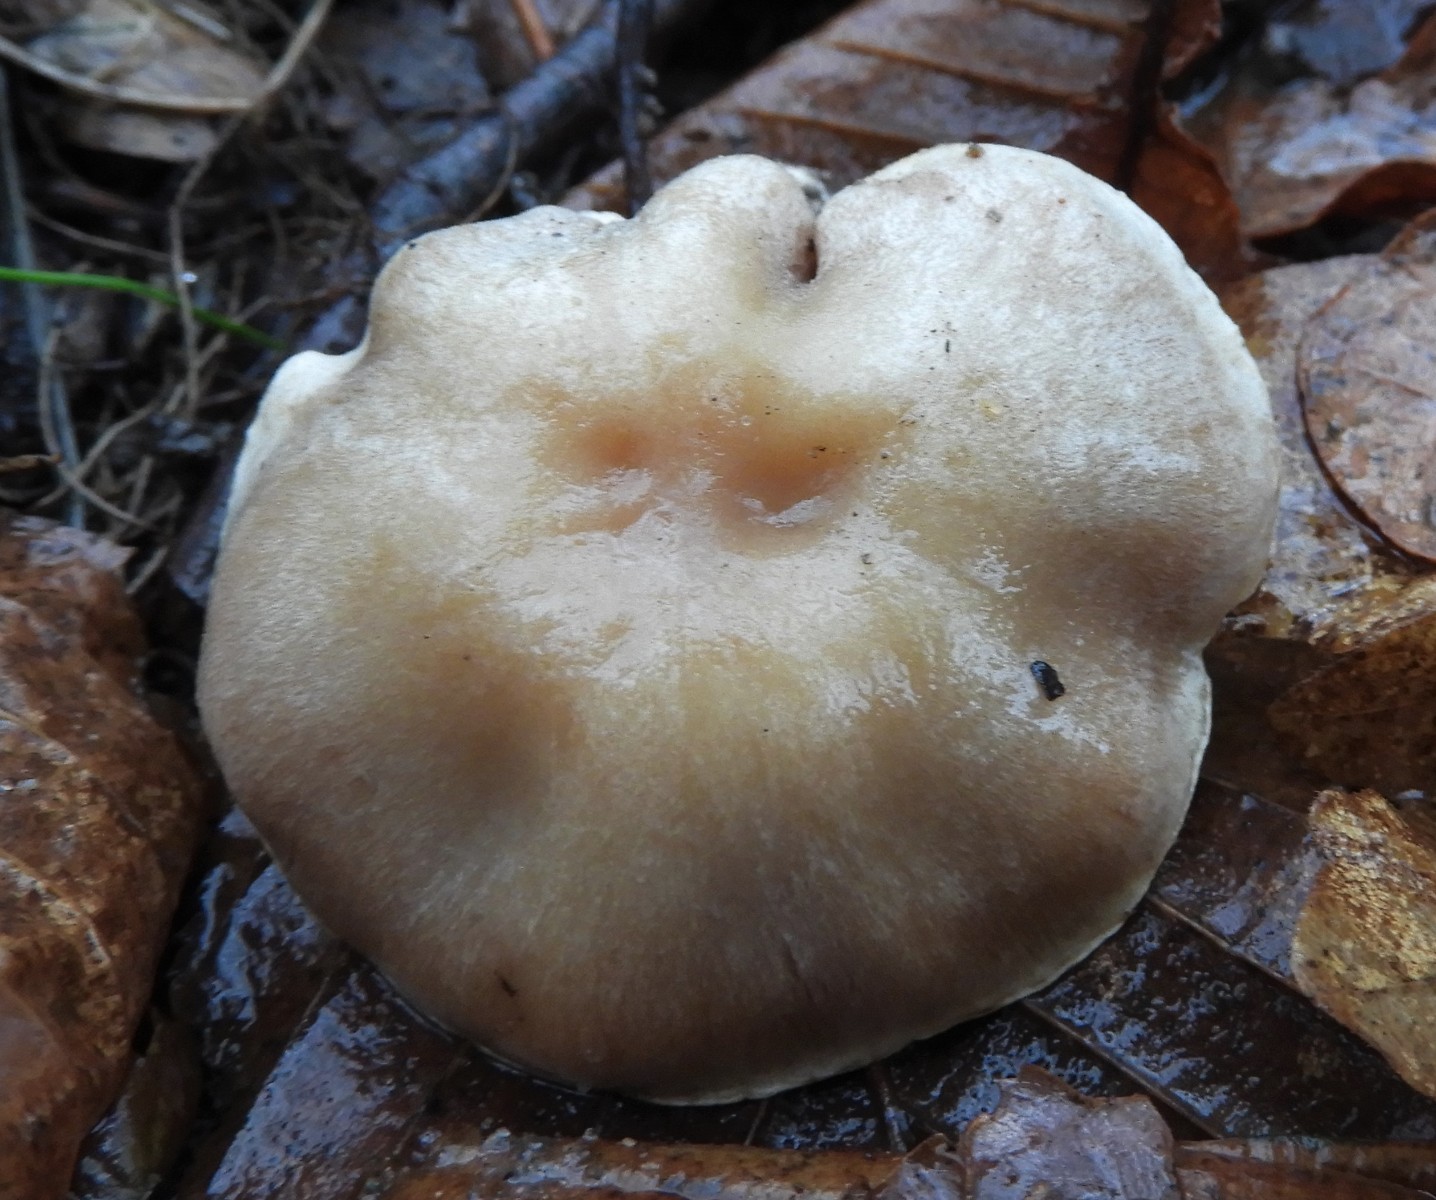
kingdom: Fungi
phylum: Basidiomycota
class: Agaricomycetes
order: Agaricales
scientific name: Agaricales
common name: champignonordenen
